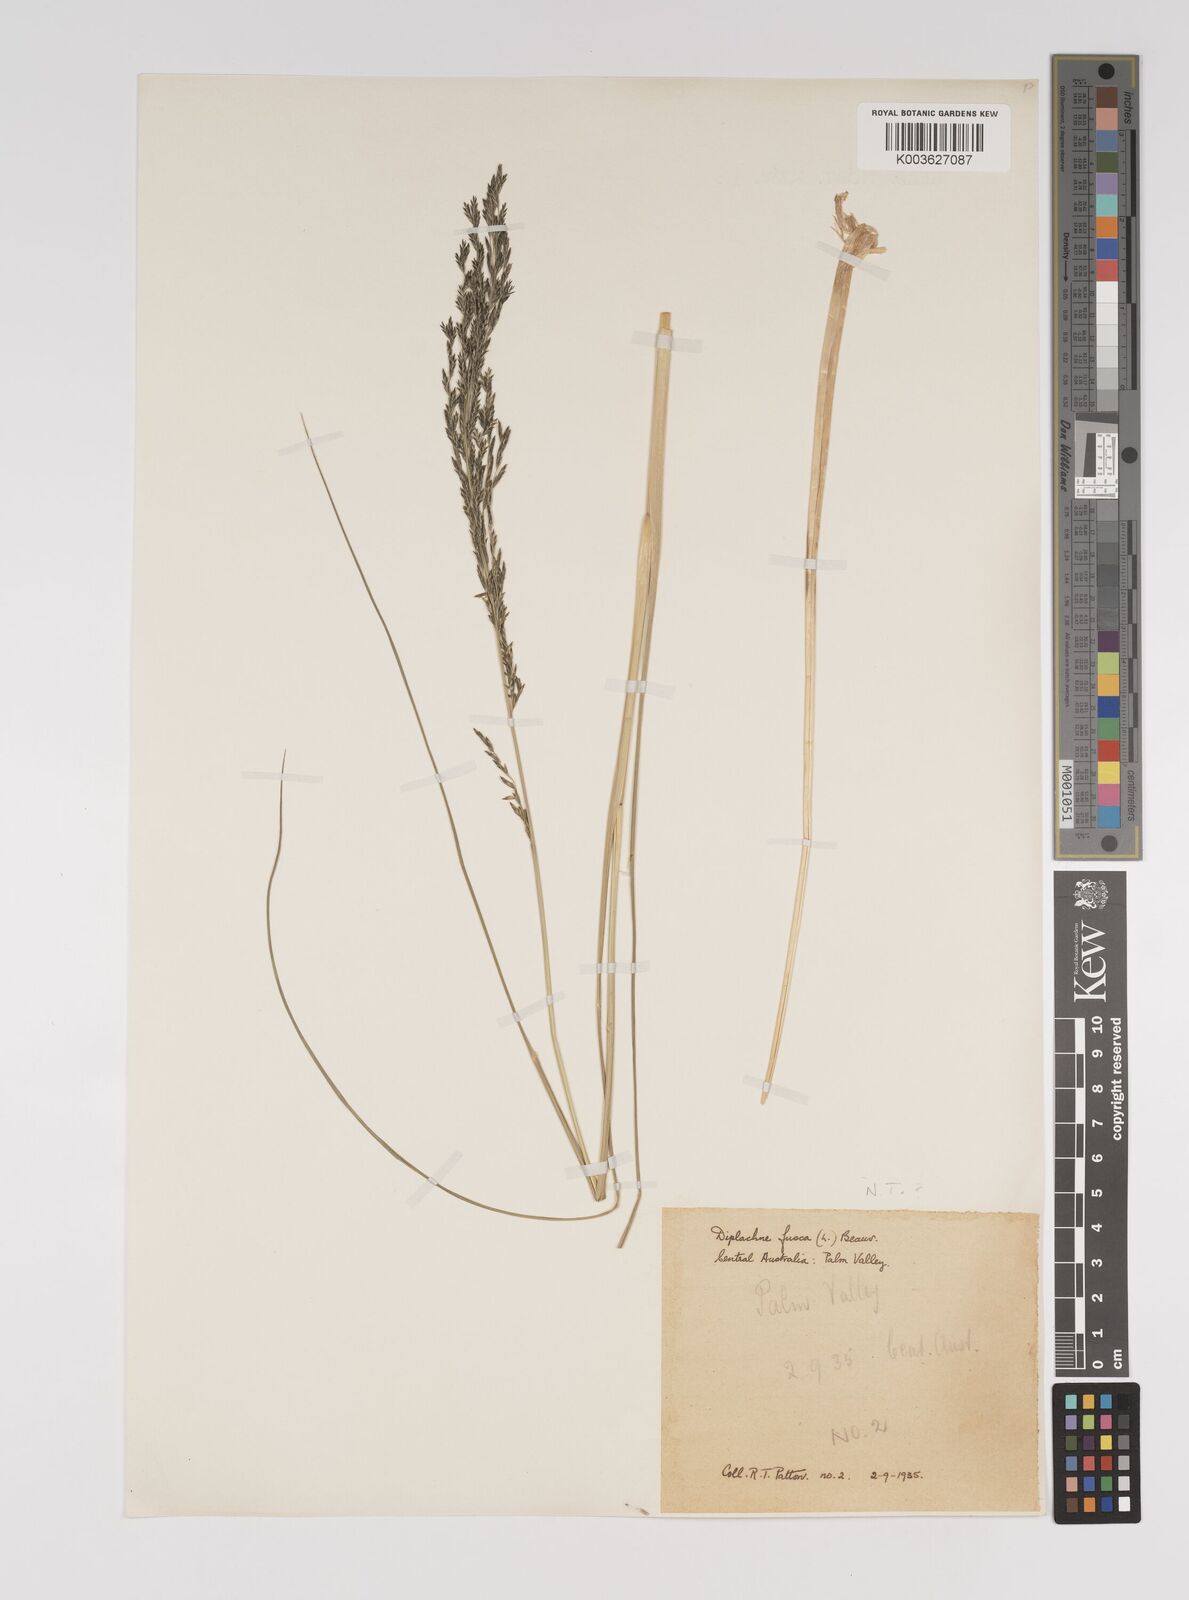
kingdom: Plantae
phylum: Tracheophyta
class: Liliopsida
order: Poales
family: Poaceae
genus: Diplachne
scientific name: Diplachne fusca
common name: Brown beetle grass
